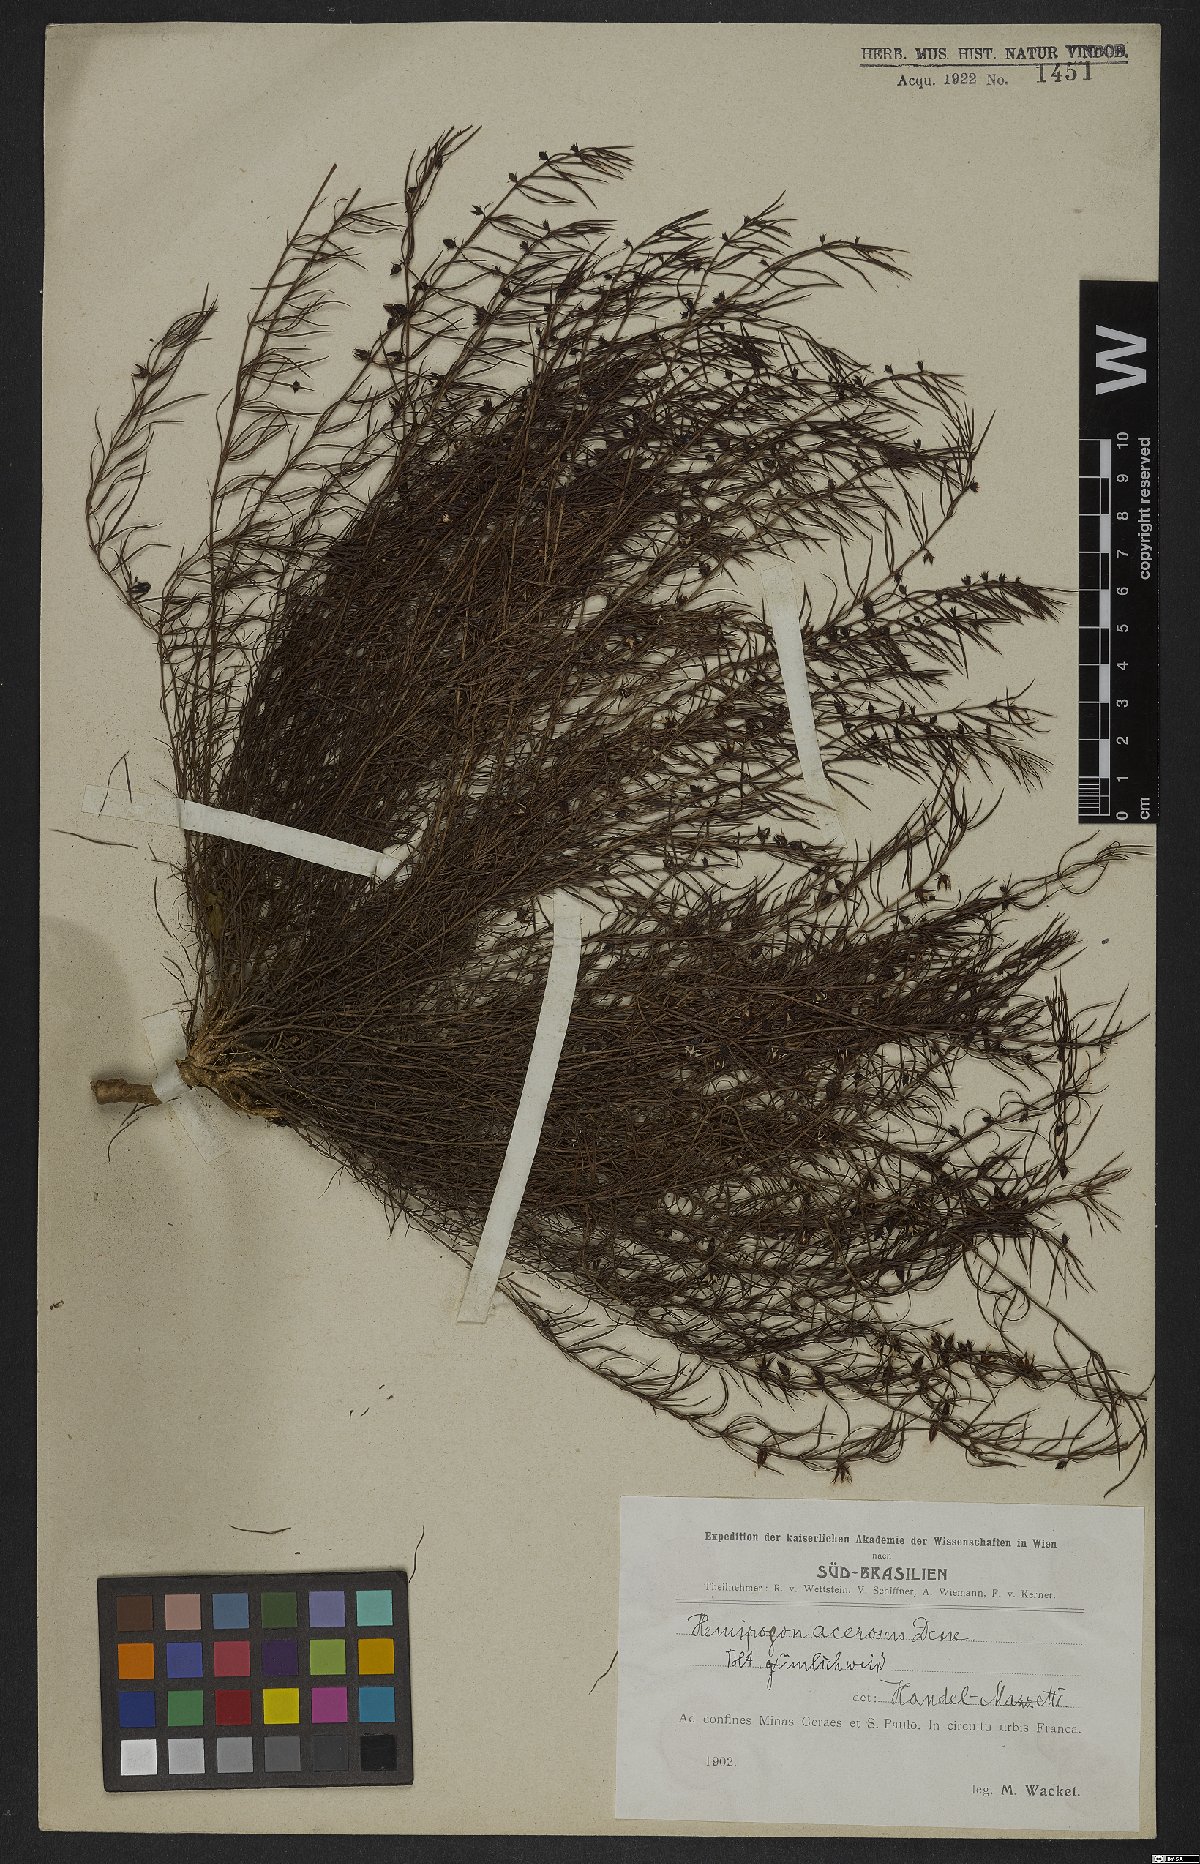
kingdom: Plantae
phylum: Tracheophyta
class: Magnoliopsida
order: Gentianales
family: Apocynaceae
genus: Hemipogon
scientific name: Hemipogon acerosus
